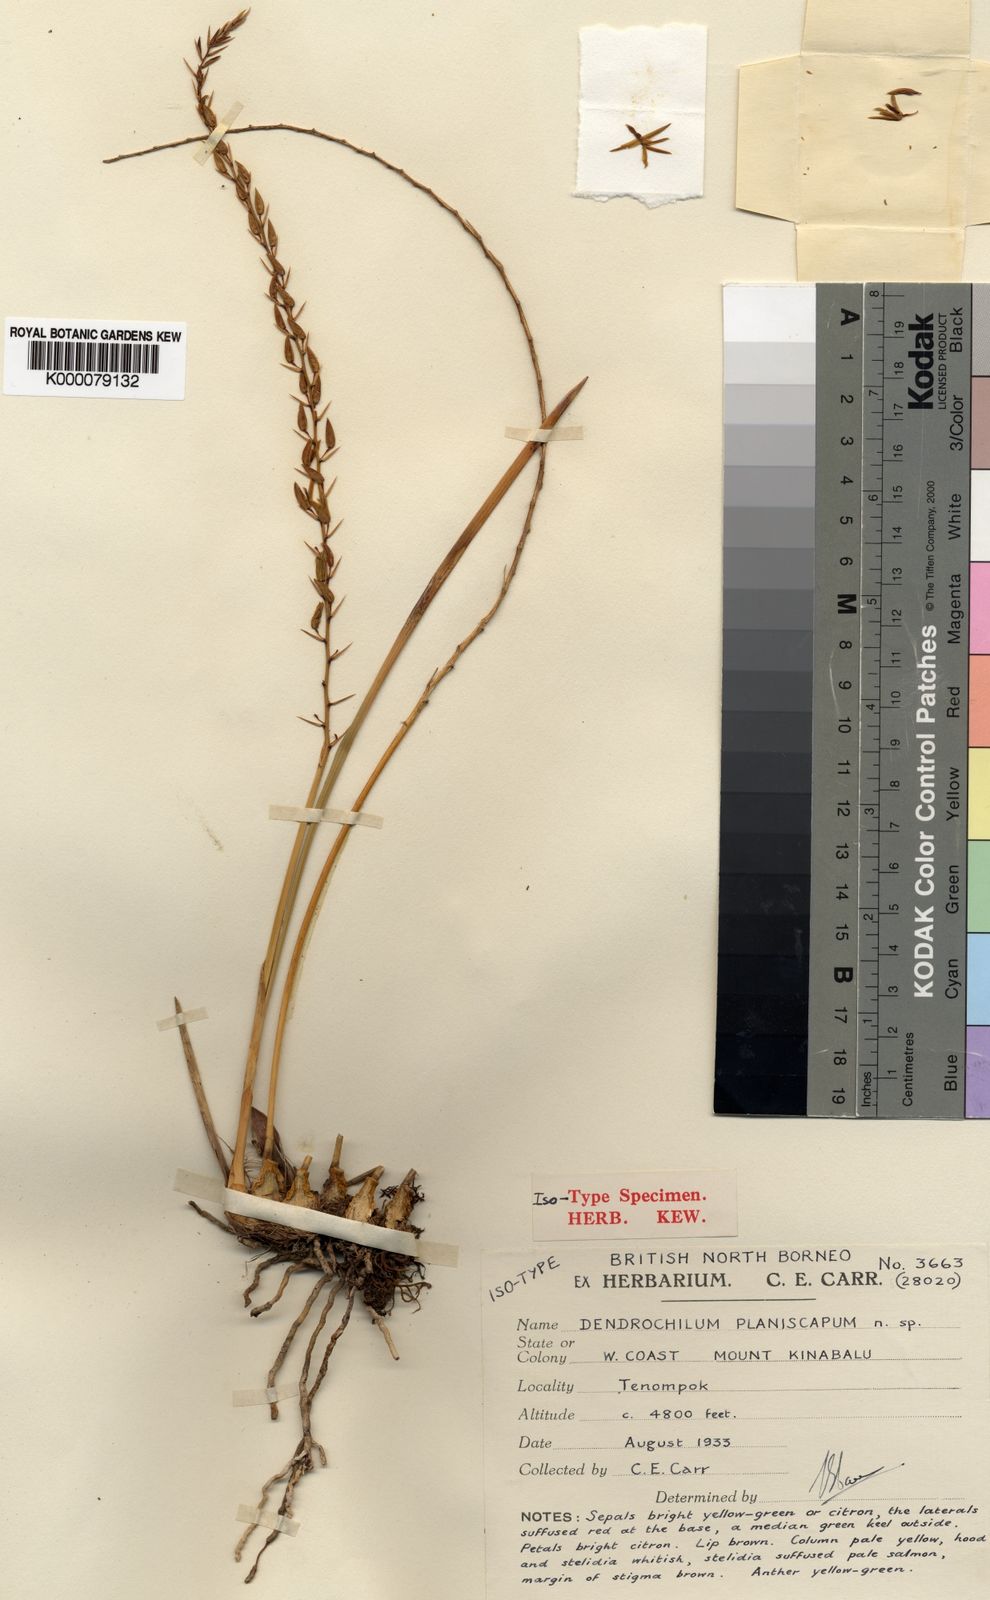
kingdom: Plantae
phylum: Tracheophyta
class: Liliopsida
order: Asparagales
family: Orchidaceae
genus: Coelogyne
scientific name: Coelogyne complanata
